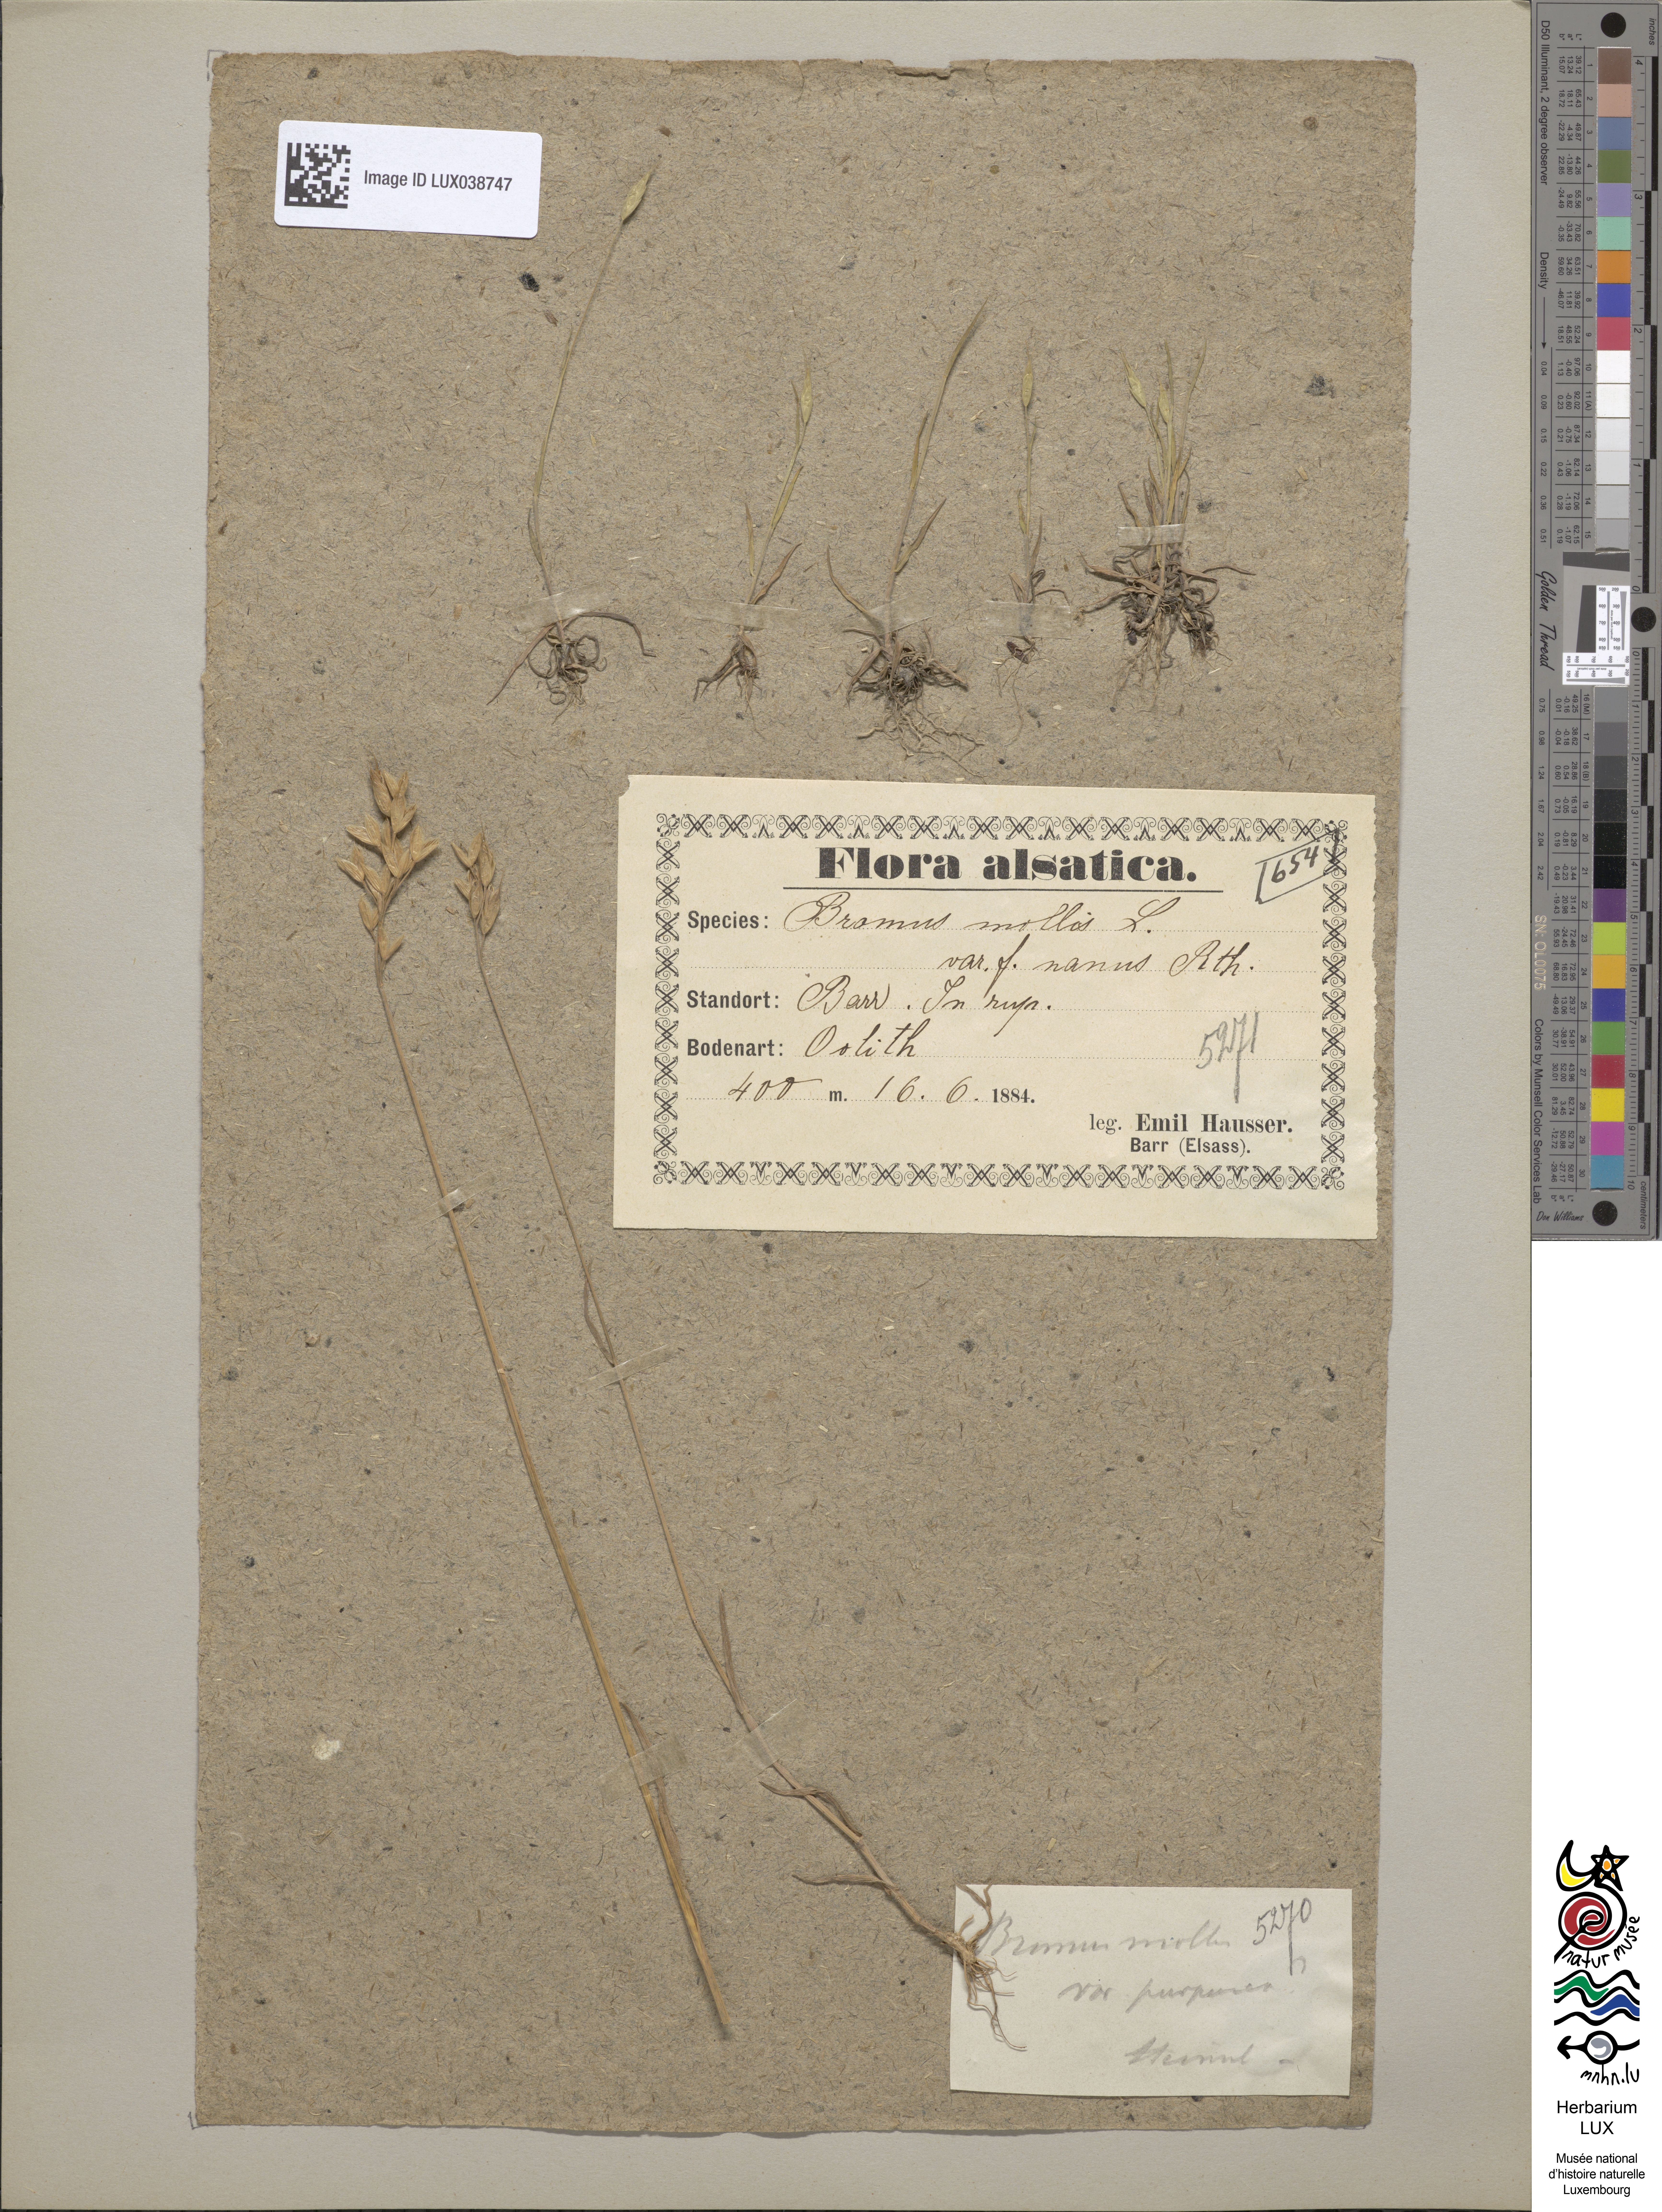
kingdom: Plantae
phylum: Tracheophyta
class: Liliopsida
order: Poales
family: Poaceae
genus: Bromus
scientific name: Bromus hordeaceus
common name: Soft brome
